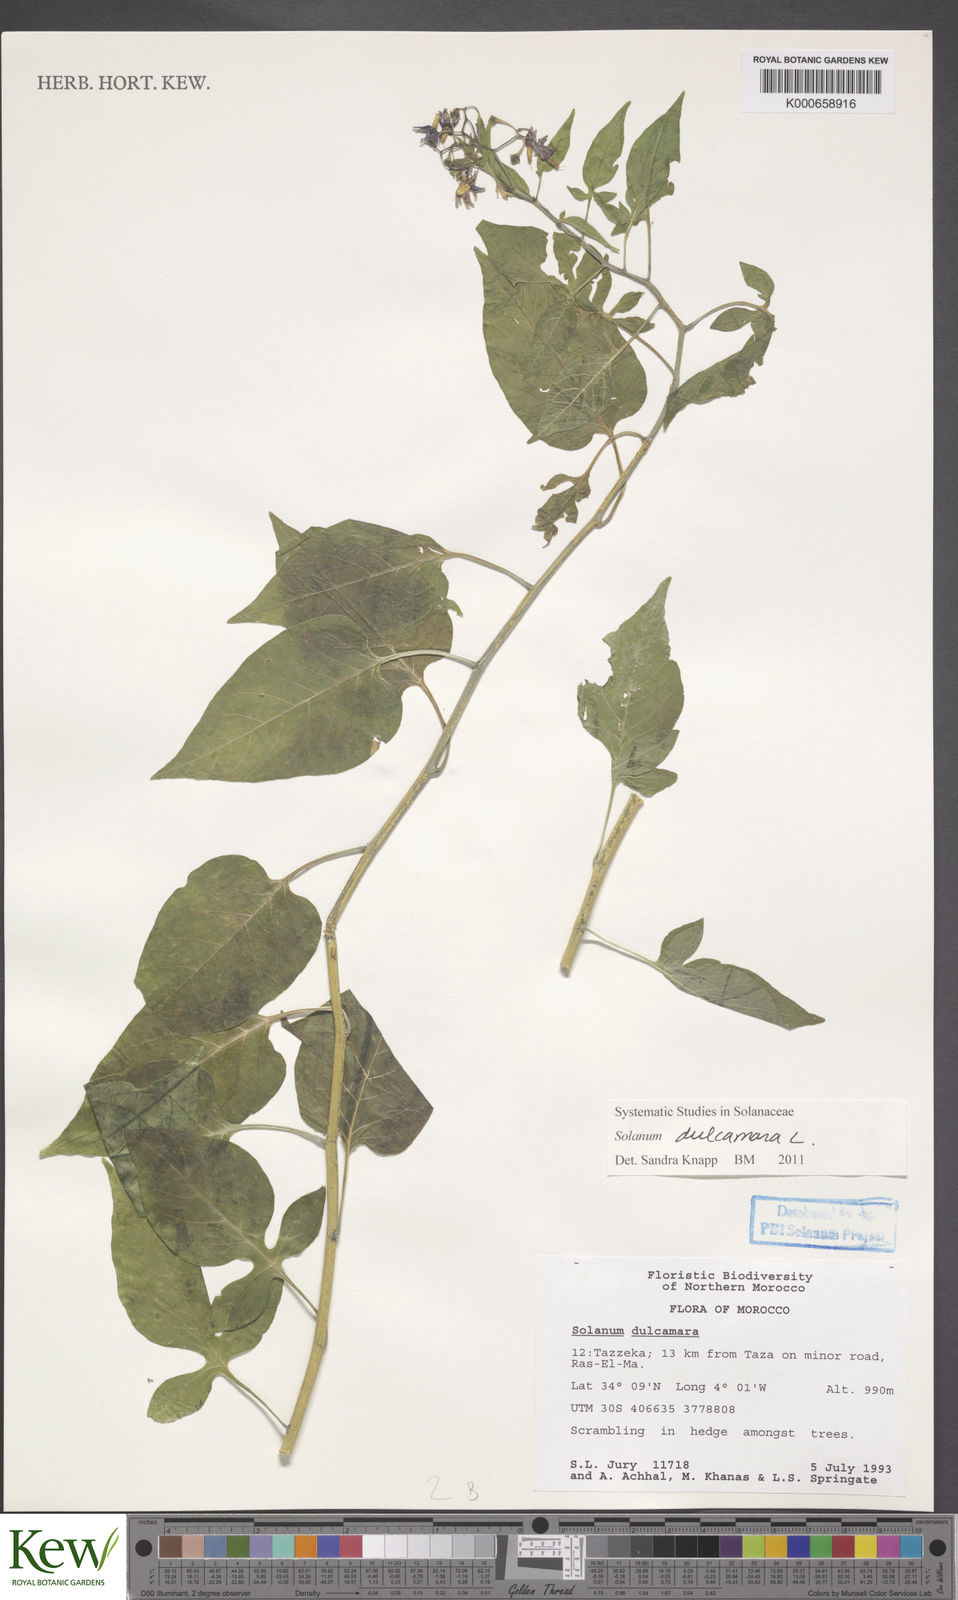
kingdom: Plantae
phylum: Tracheophyta
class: Magnoliopsida
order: Solanales
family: Solanaceae
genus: Solanum
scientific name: Solanum dulcamara
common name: Climbing nightshade
